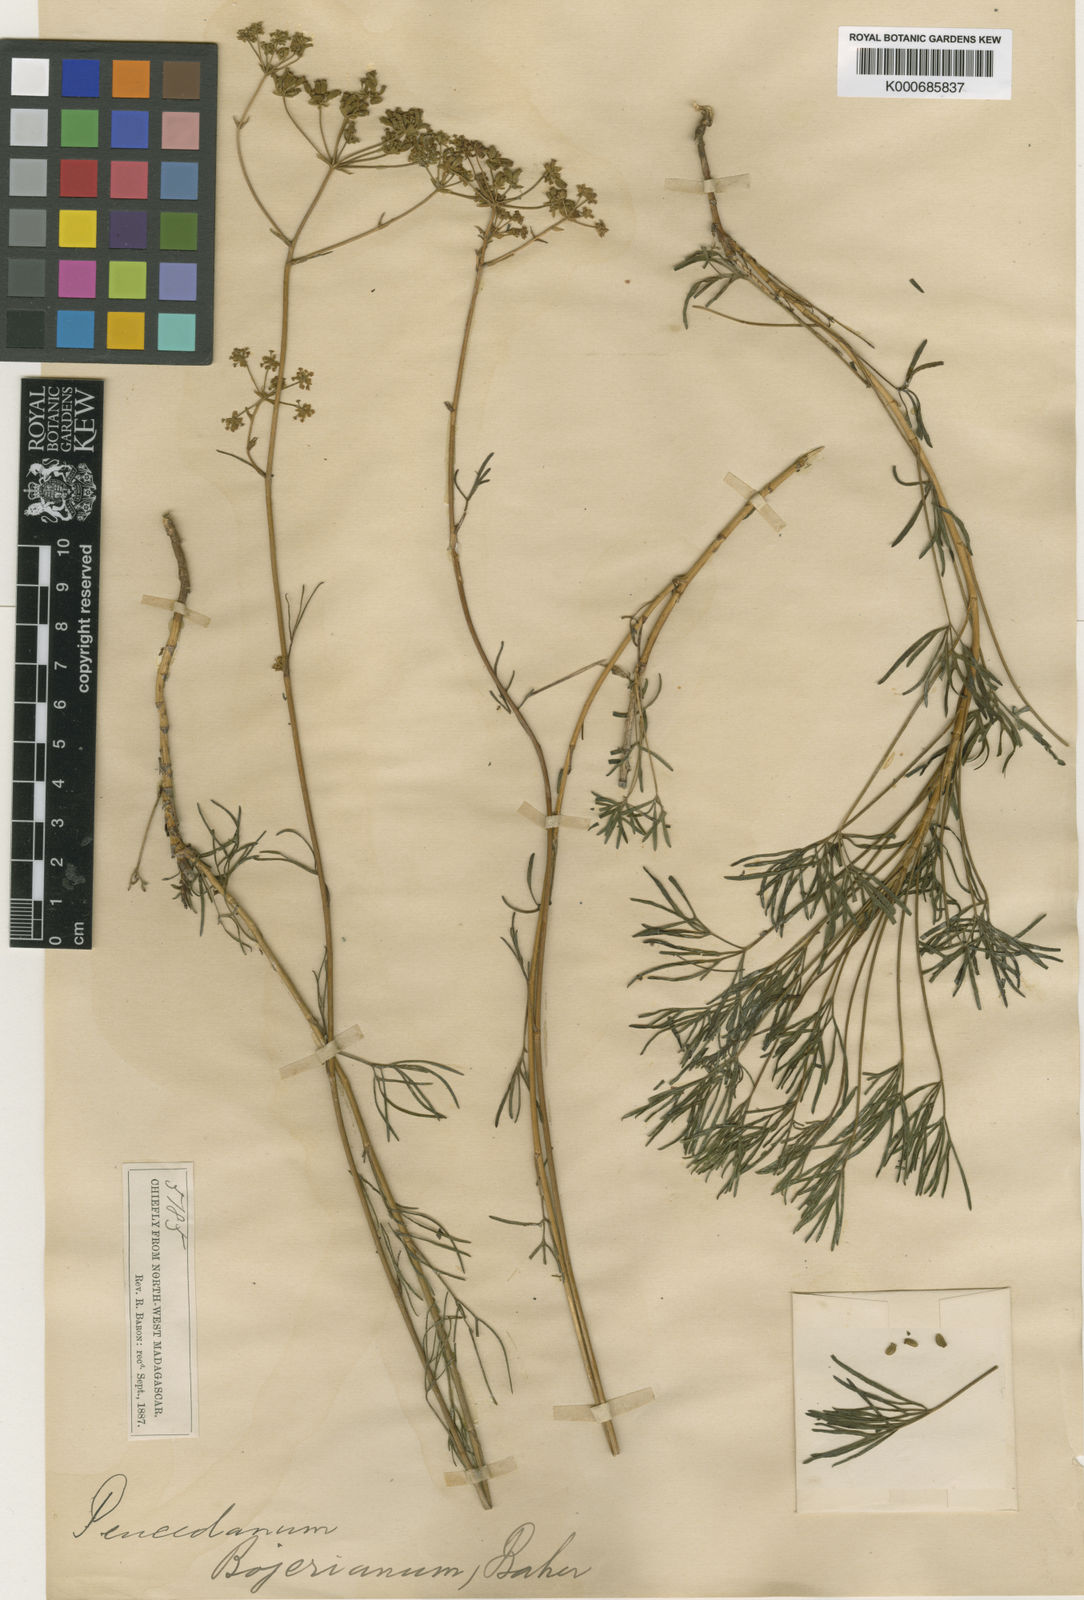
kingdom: Plantae
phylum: Tracheophyta
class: Magnoliopsida
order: Apiales
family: Apiaceae
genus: Tana
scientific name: Tana bojeriana
